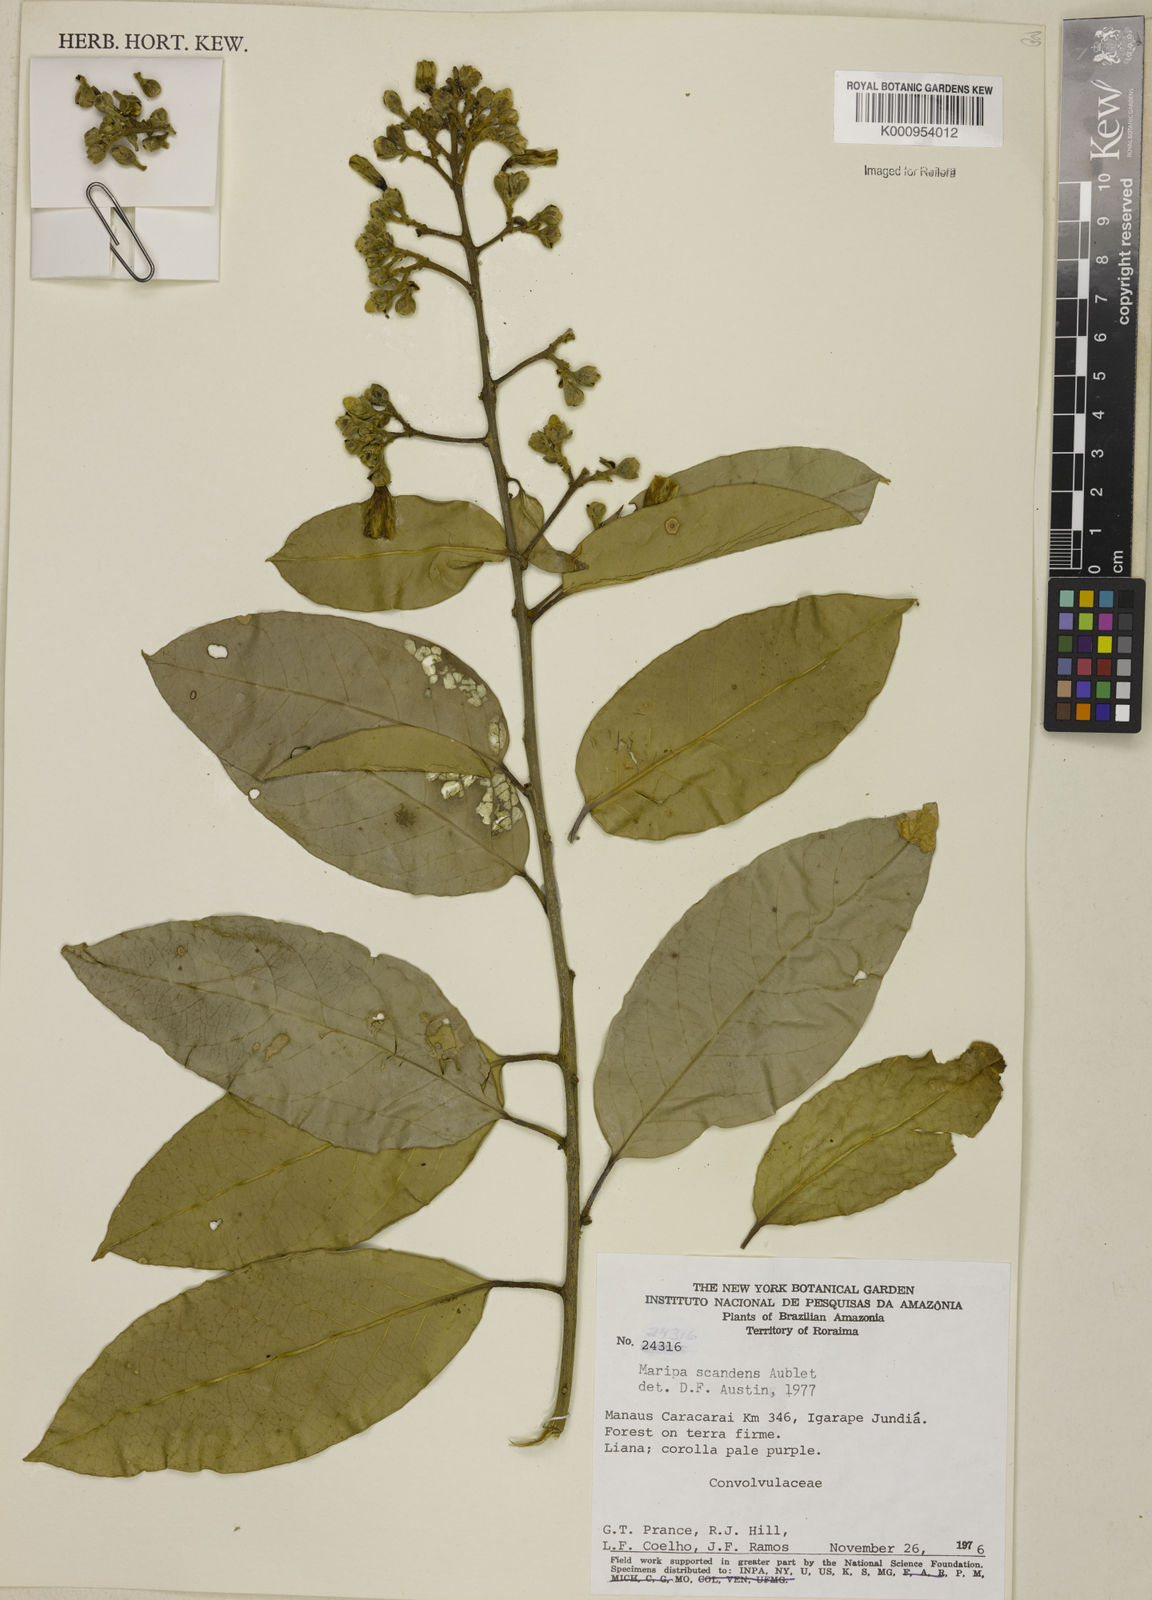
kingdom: Plantae
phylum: Tracheophyta
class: Magnoliopsida
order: Solanales
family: Convolvulaceae
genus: Maripa
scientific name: Maripa scandens
